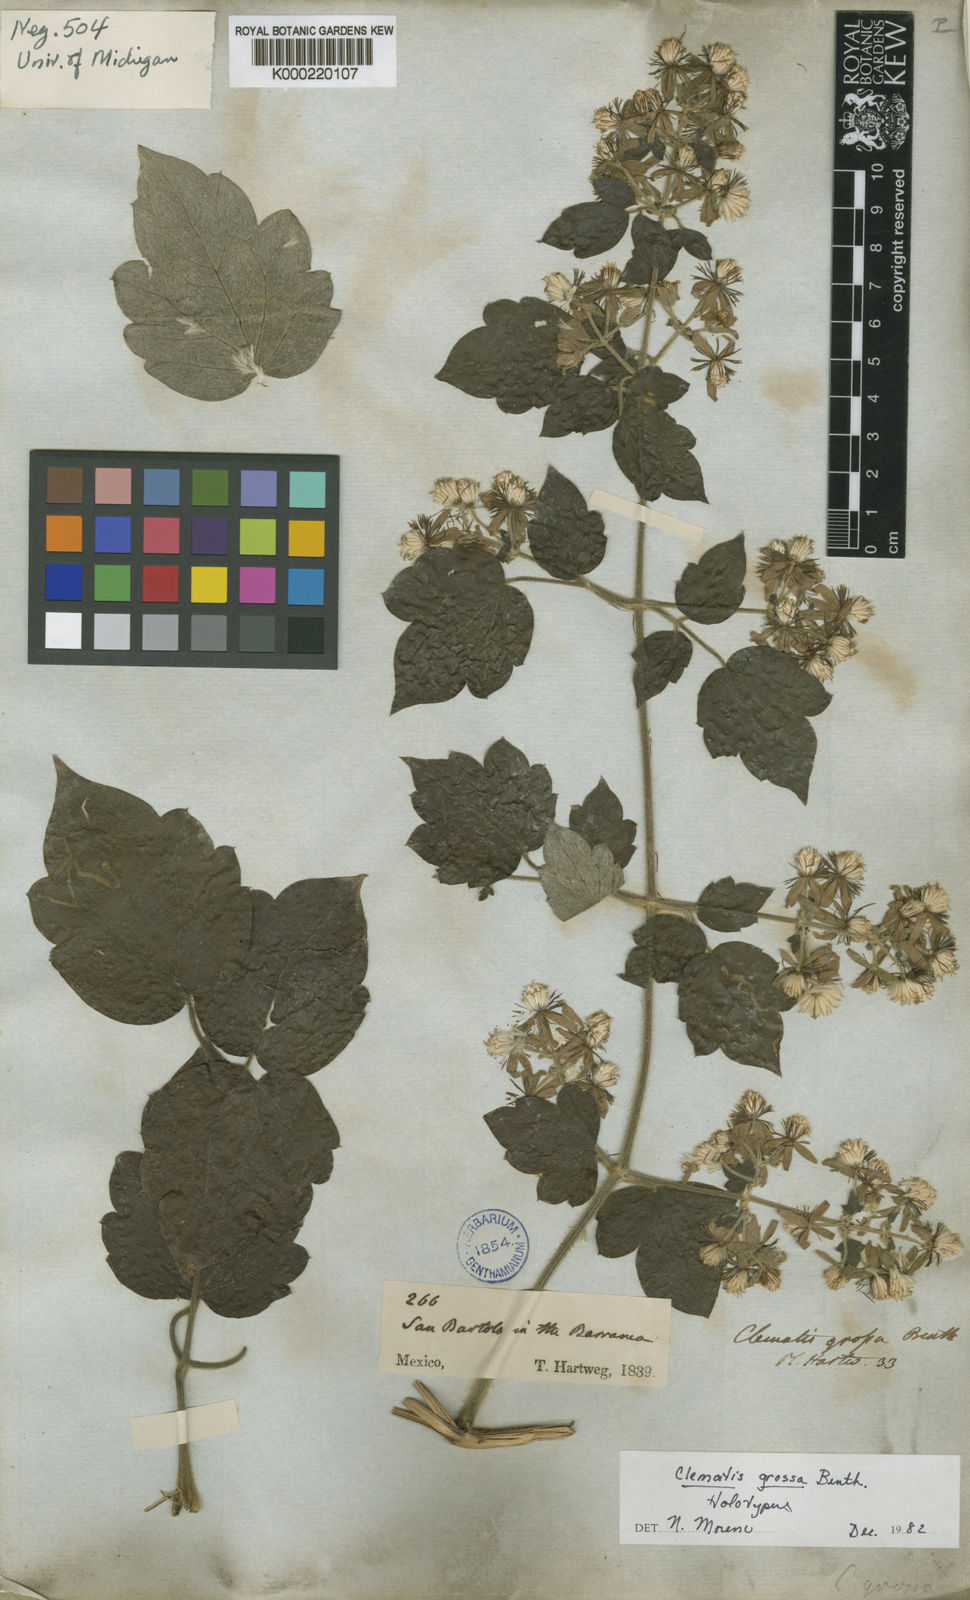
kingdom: Plantae
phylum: Tracheophyta
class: Magnoliopsida
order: Ranunculales
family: Ranunculaceae
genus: Clematis
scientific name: Clematis grossa
